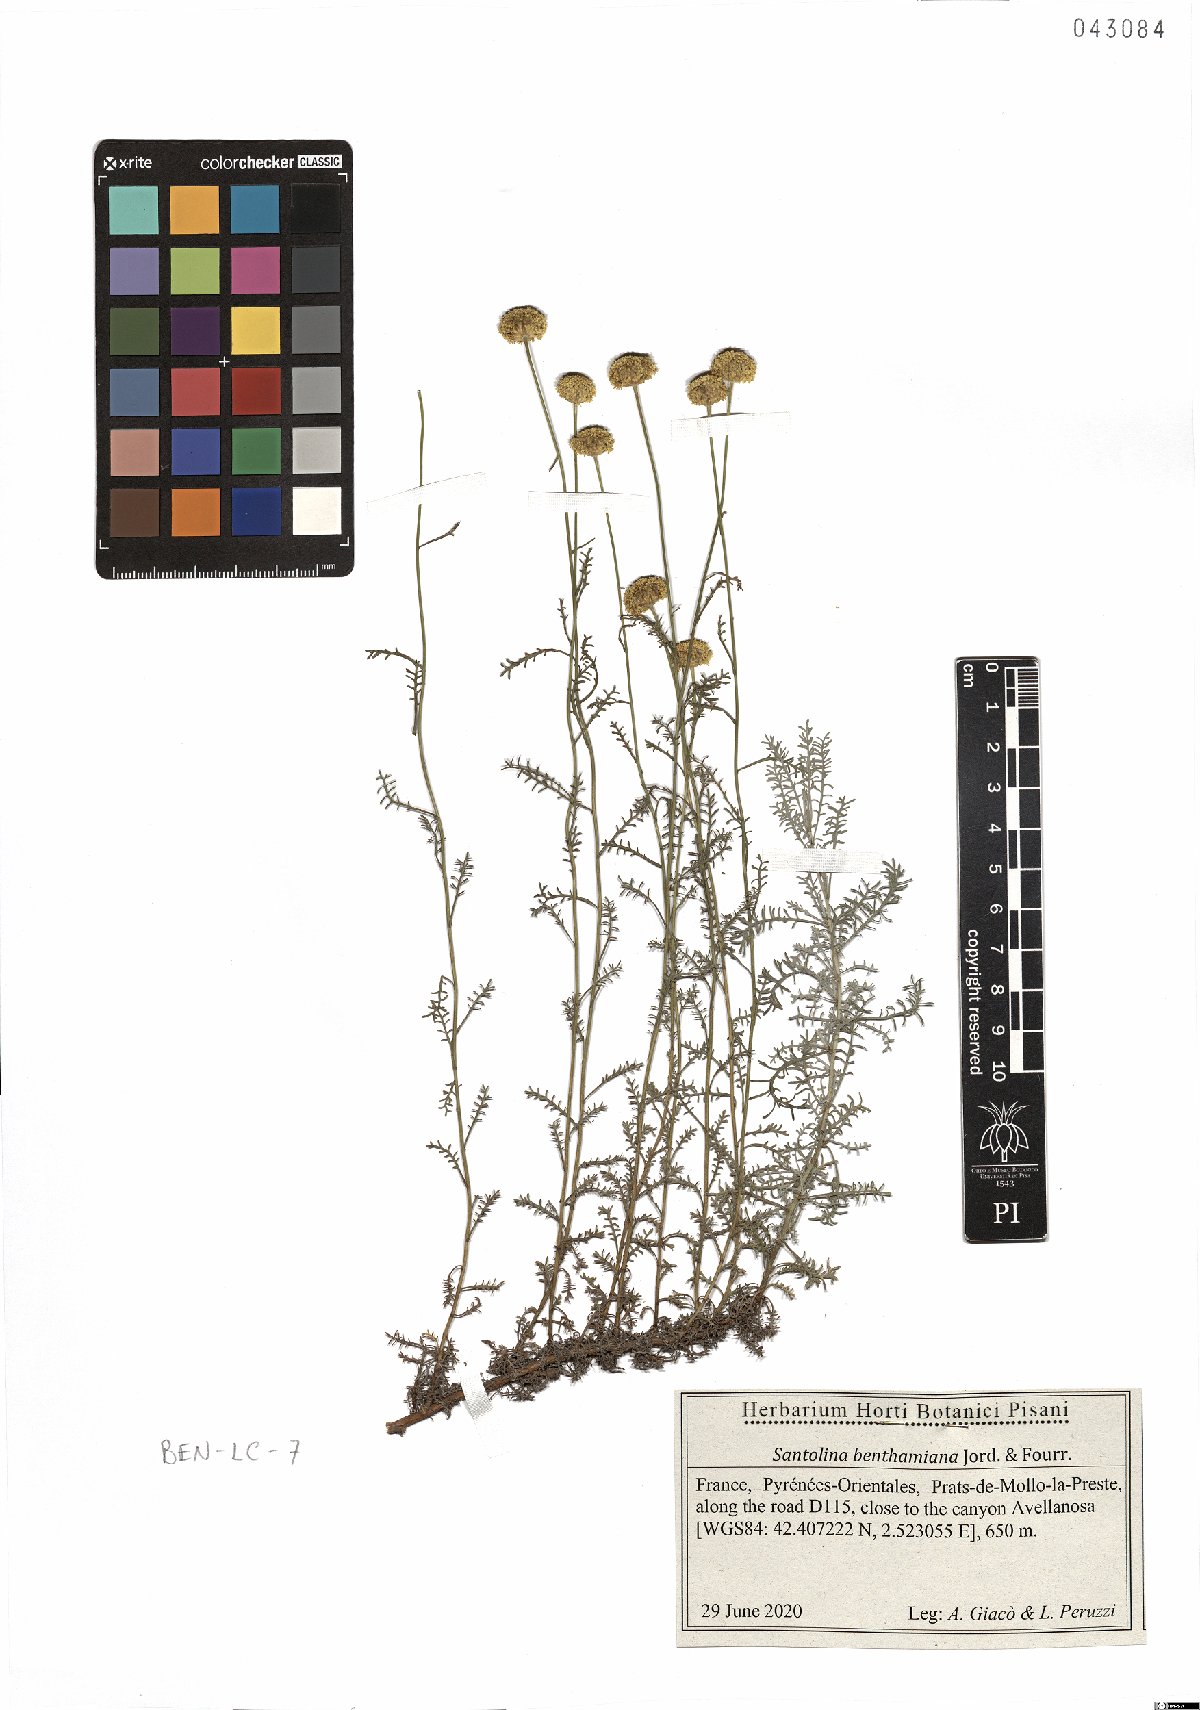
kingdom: Plantae
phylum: Tracheophyta
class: Magnoliopsida
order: Asterales
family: Asteraceae
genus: Santolina
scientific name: Santolina benthamiana
